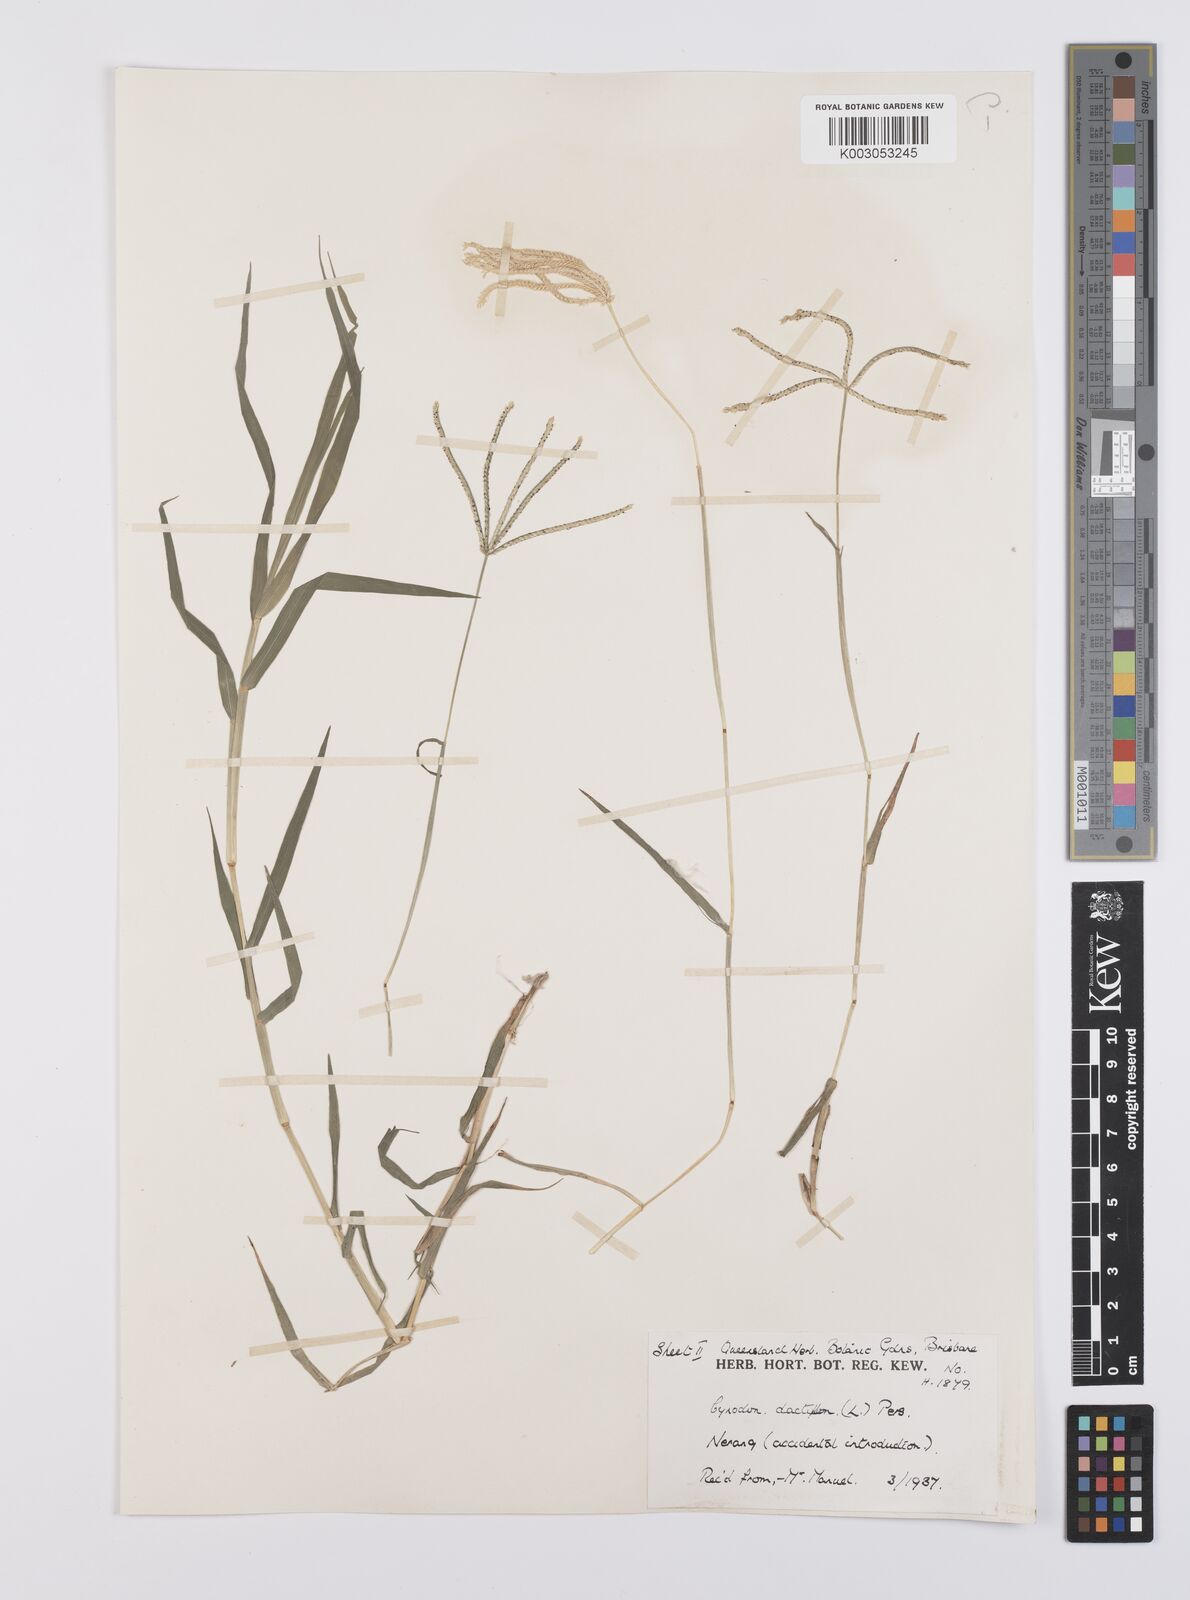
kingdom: Plantae
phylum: Tracheophyta
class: Liliopsida
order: Poales
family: Poaceae
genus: Cynodon
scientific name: Cynodon dactylon
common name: Bermuda grass
